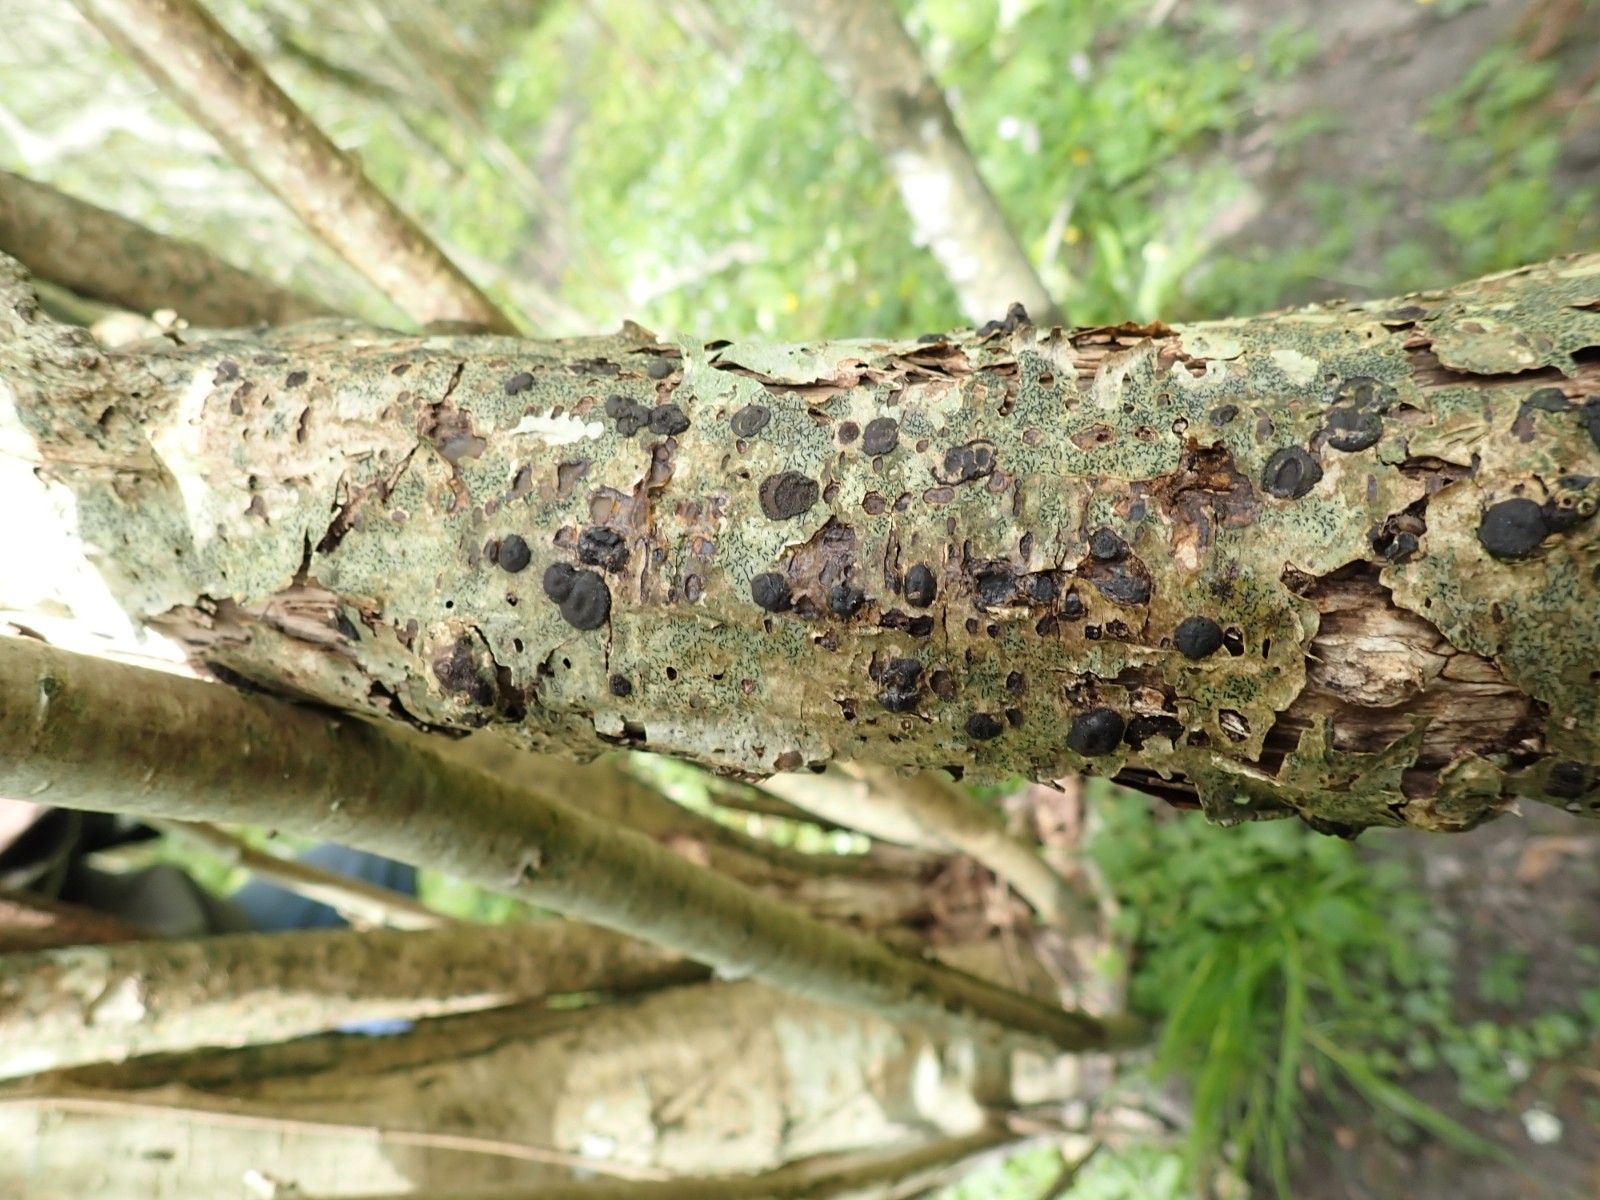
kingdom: Fungi
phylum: Ascomycota
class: Sordariomycetes
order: Xylariales
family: Hypoxylaceae
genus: Hypoxylon
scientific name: Hypoxylon fuscum
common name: kegleformet kulbær
